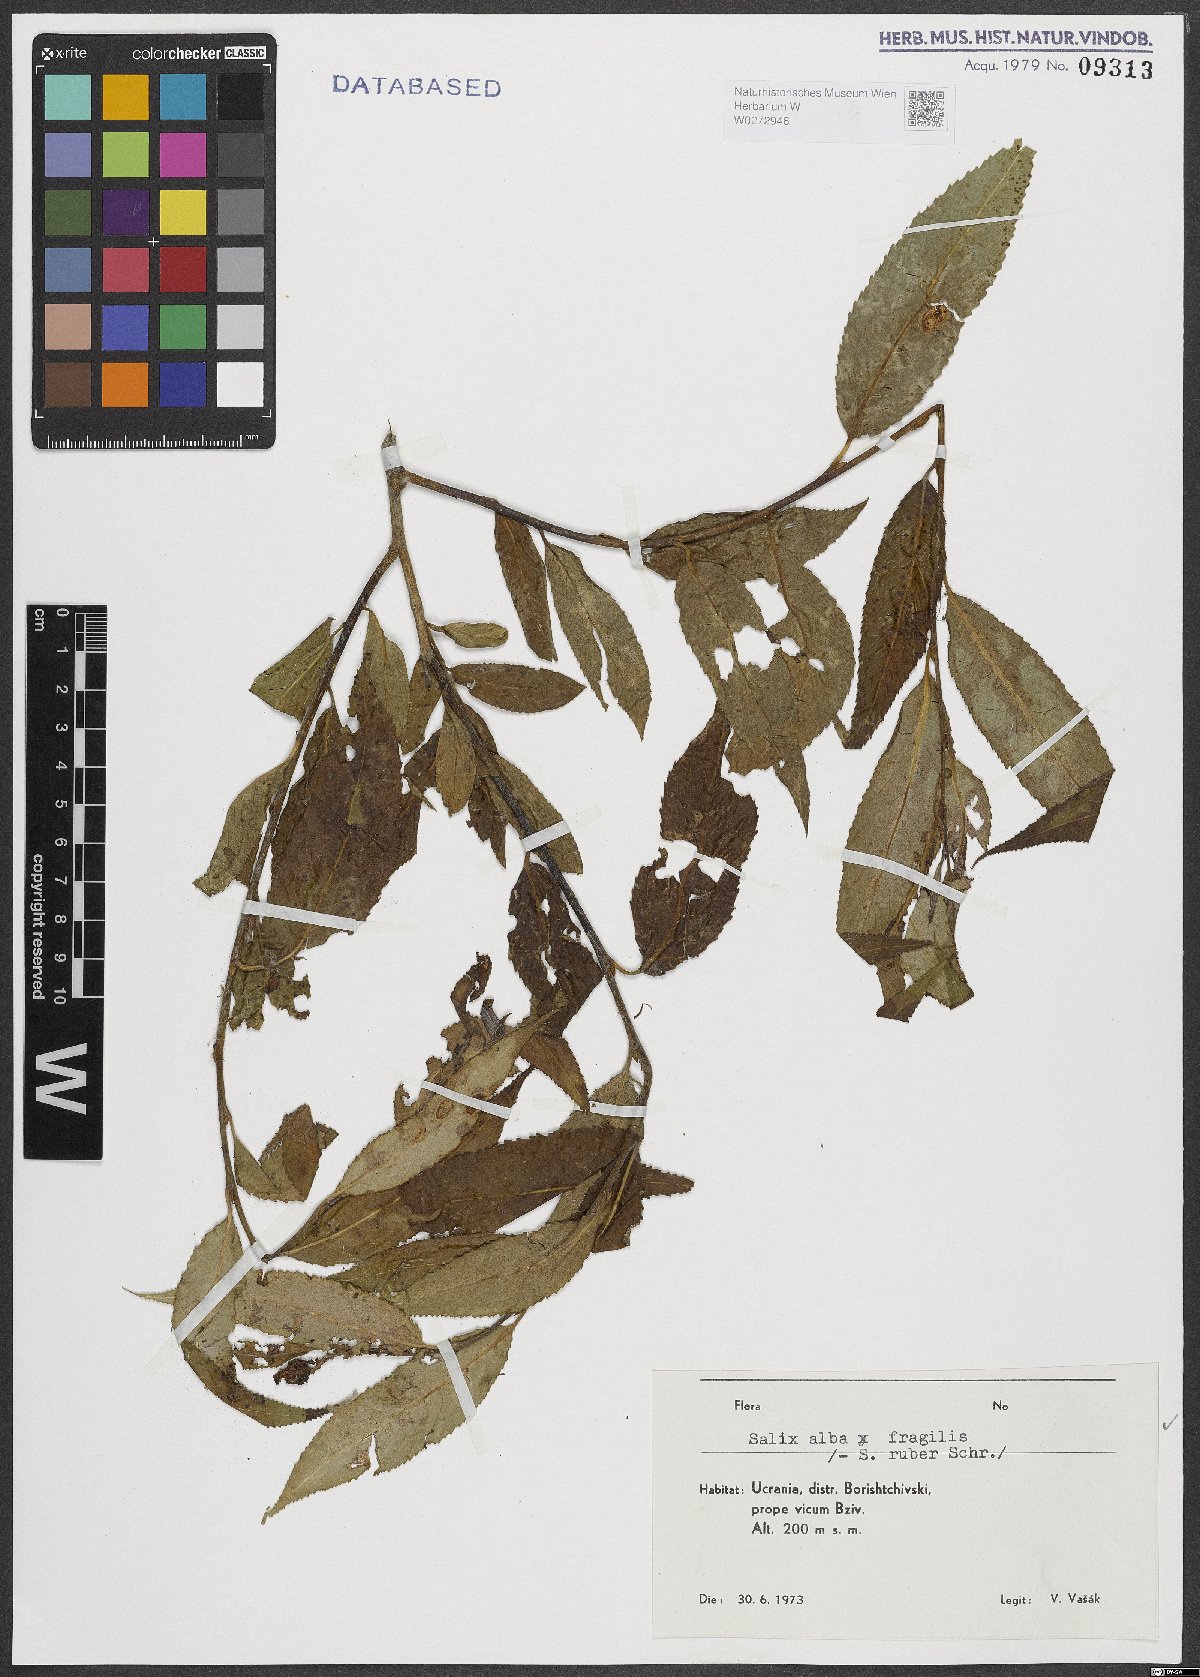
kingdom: Plantae
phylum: Tracheophyta
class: Magnoliopsida
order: Malpighiales
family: Salicaceae
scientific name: Salicaceae
